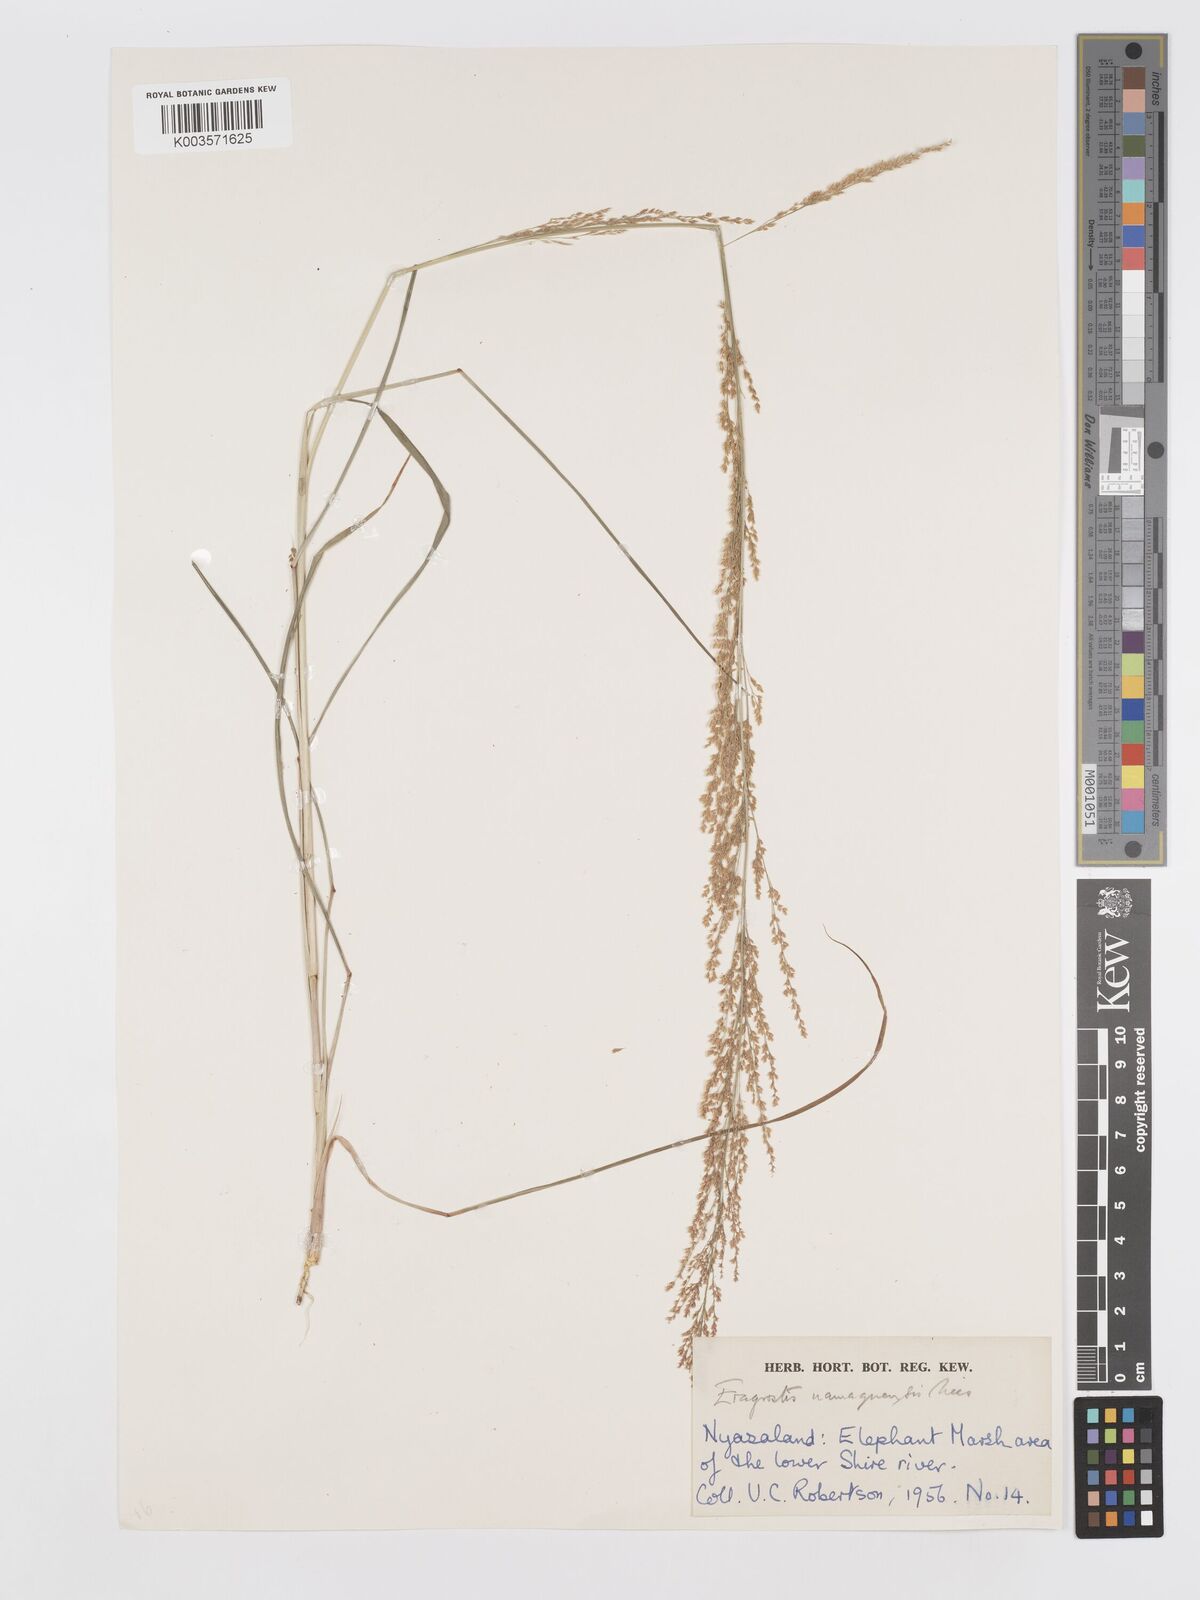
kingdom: Plantae
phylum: Tracheophyta
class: Liliopsida
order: Poales
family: Poaceae
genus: Eragrostis
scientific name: Eragrostis japonica
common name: Pond lovegrass
